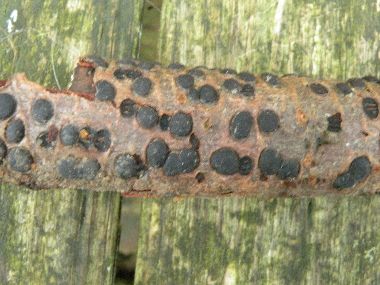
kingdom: Fungi
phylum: Ascomycota
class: Sordariomycetes
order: Xylariales
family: Diatrypaceae
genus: Diatrype
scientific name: Diatrype bullata
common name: pile-kulskorpe
